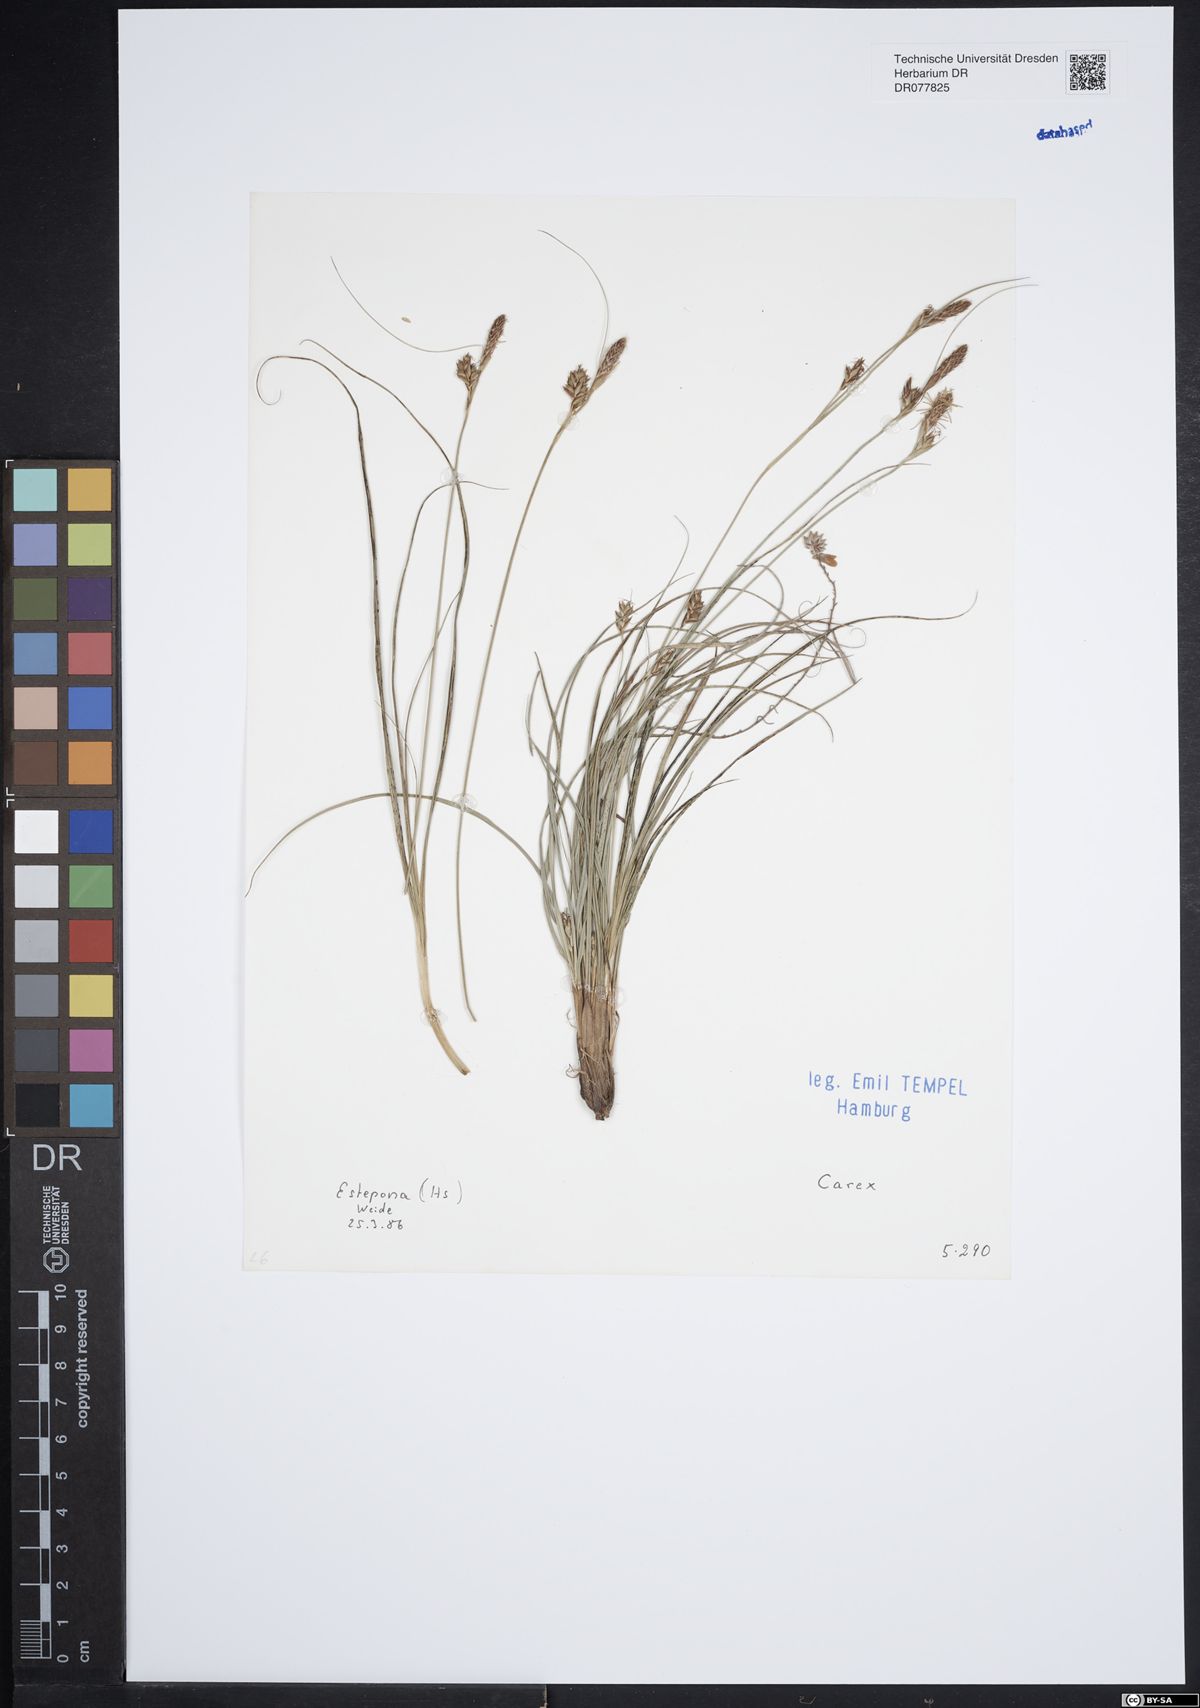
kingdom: Plantae
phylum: Tracheophyta
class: Liliopsida
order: Poales
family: Cyperaceae
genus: Carex
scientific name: Carex
